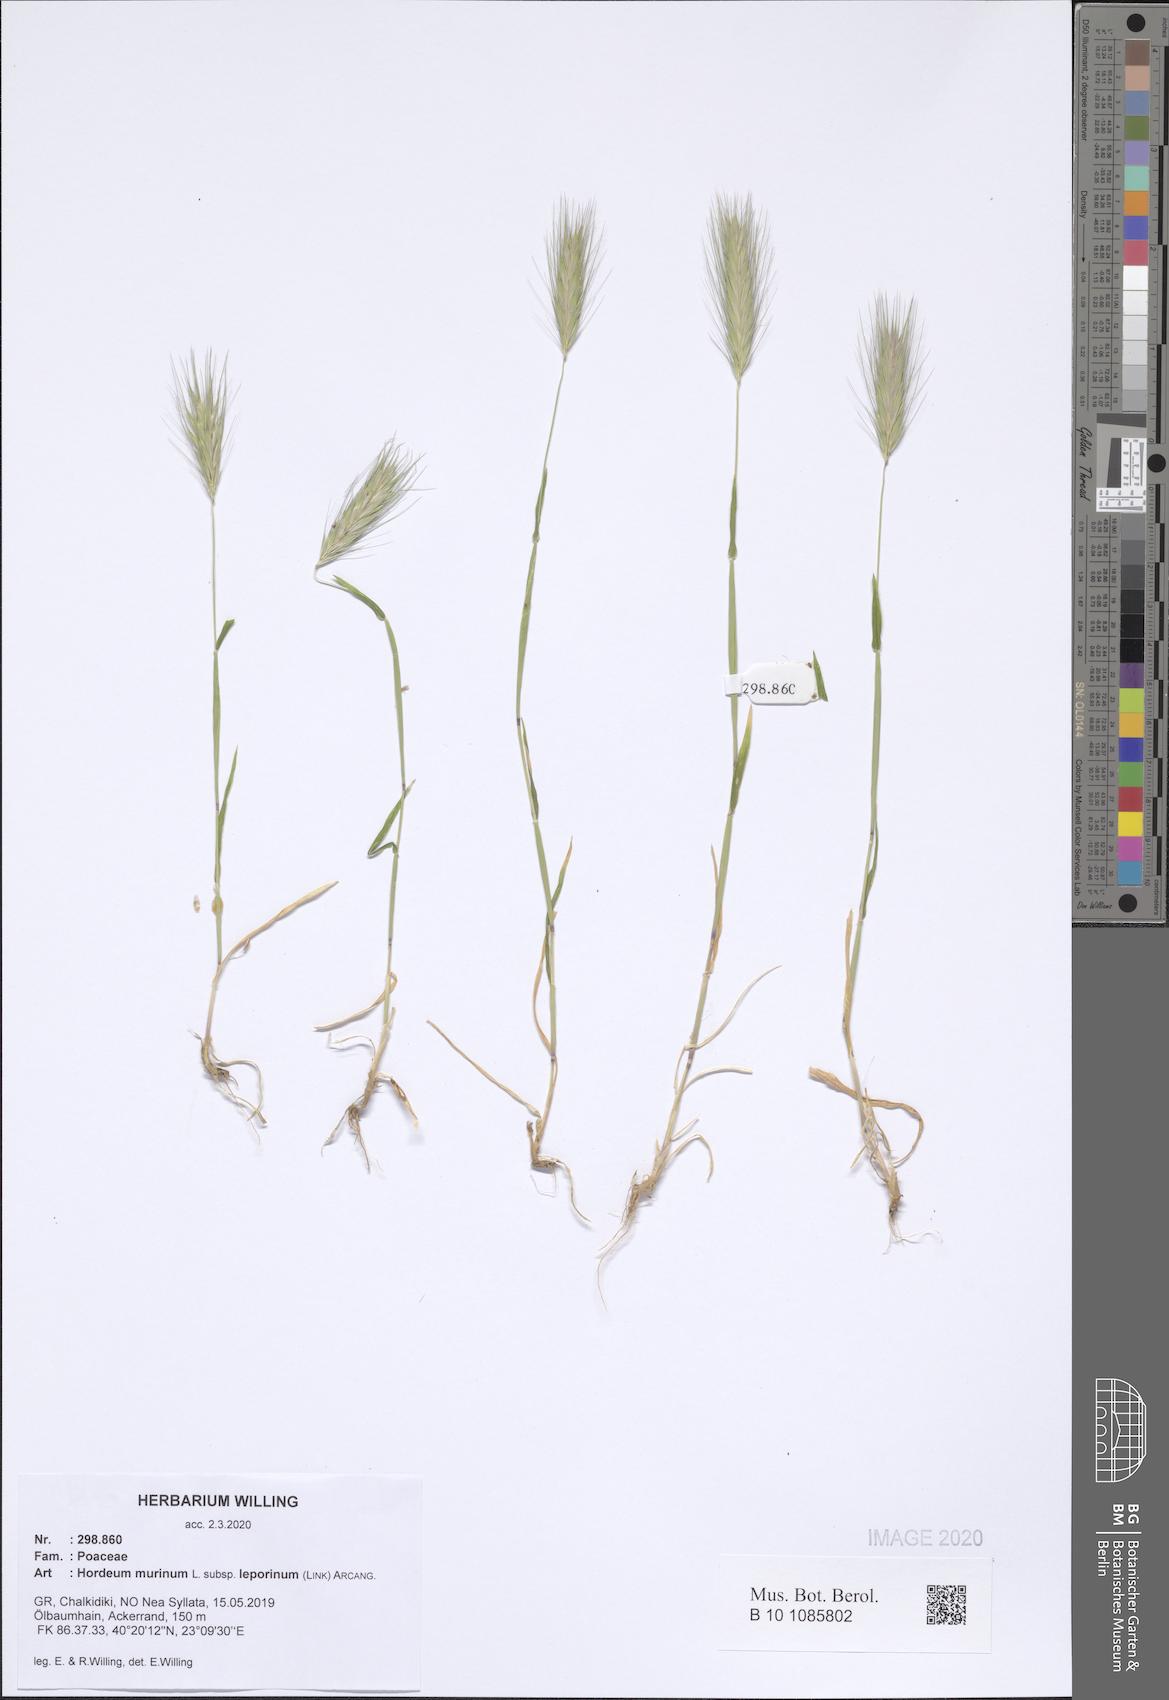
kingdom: Plantae
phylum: Tracheophyta
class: Liliopsida
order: Poales
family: Poaceae
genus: Hordeum
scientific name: Hordeum murinum
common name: Wall barley
